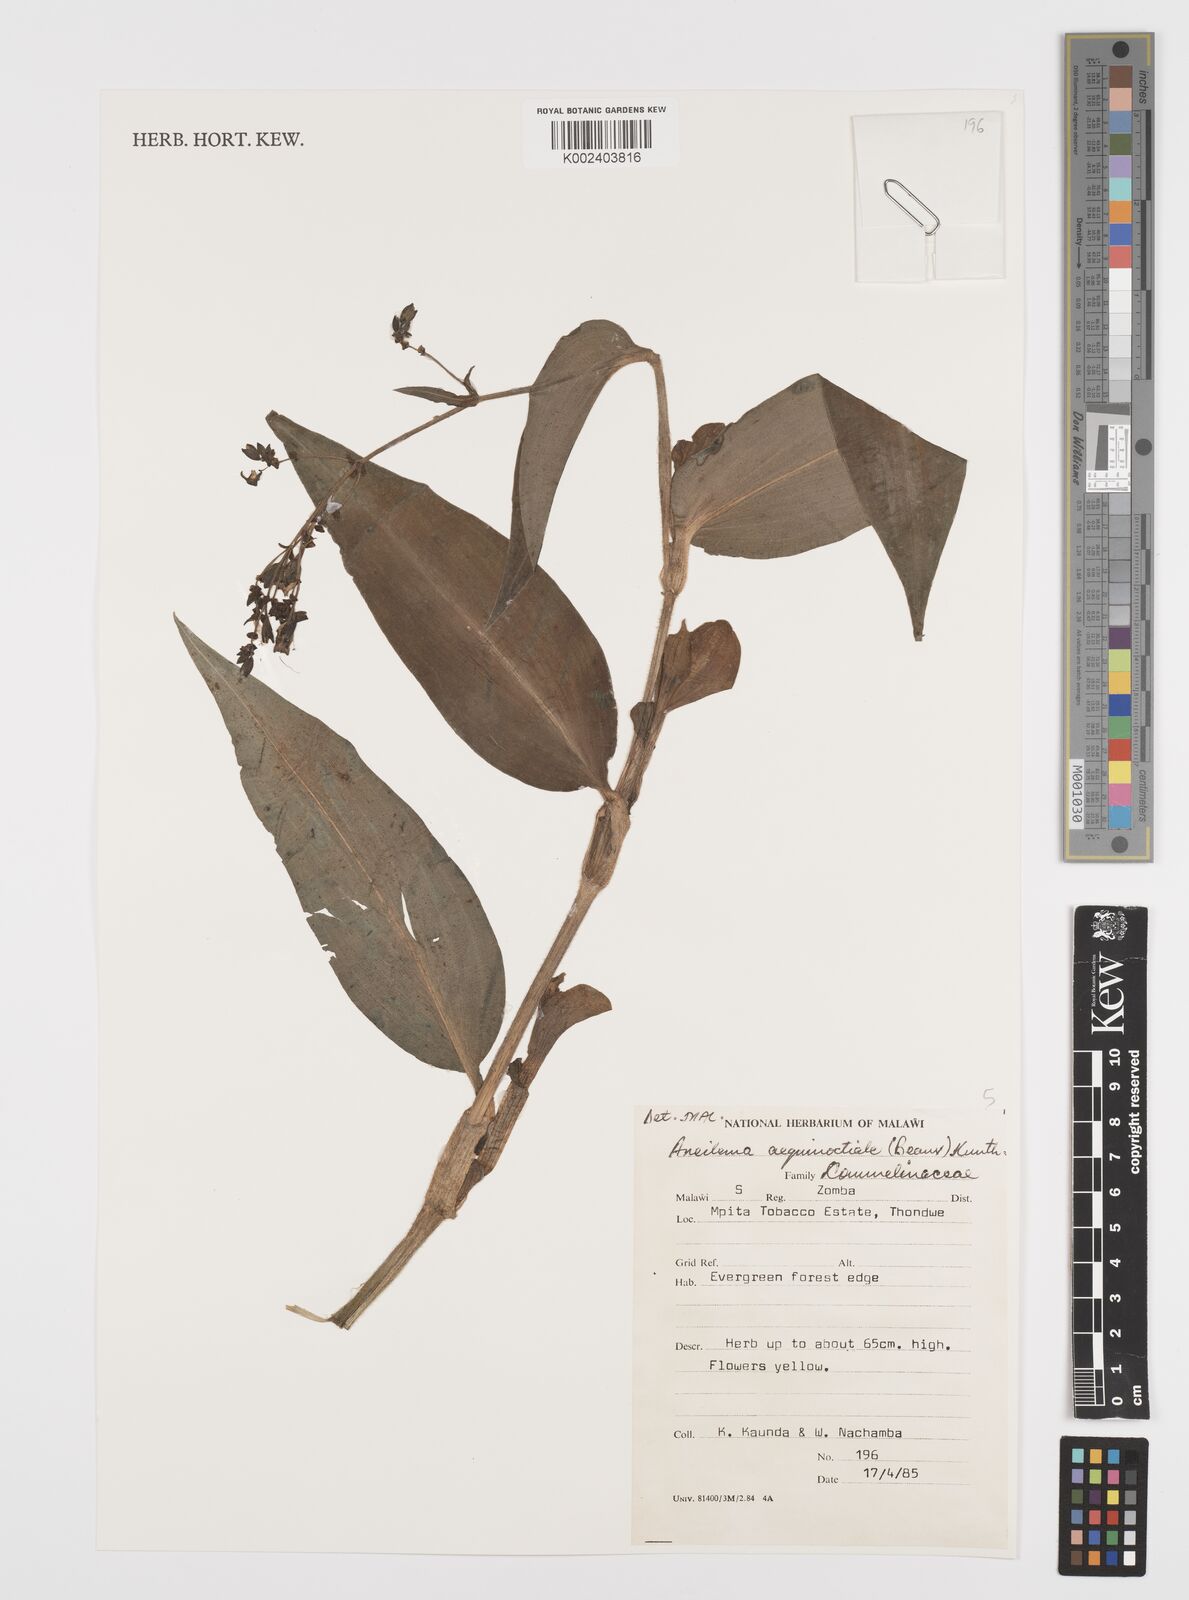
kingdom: Plantae
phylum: Tracheophyta
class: Liliopsida
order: Commelinales
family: Commelinaceae
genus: Aneilema
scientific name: Aneilema aequinoctiale
